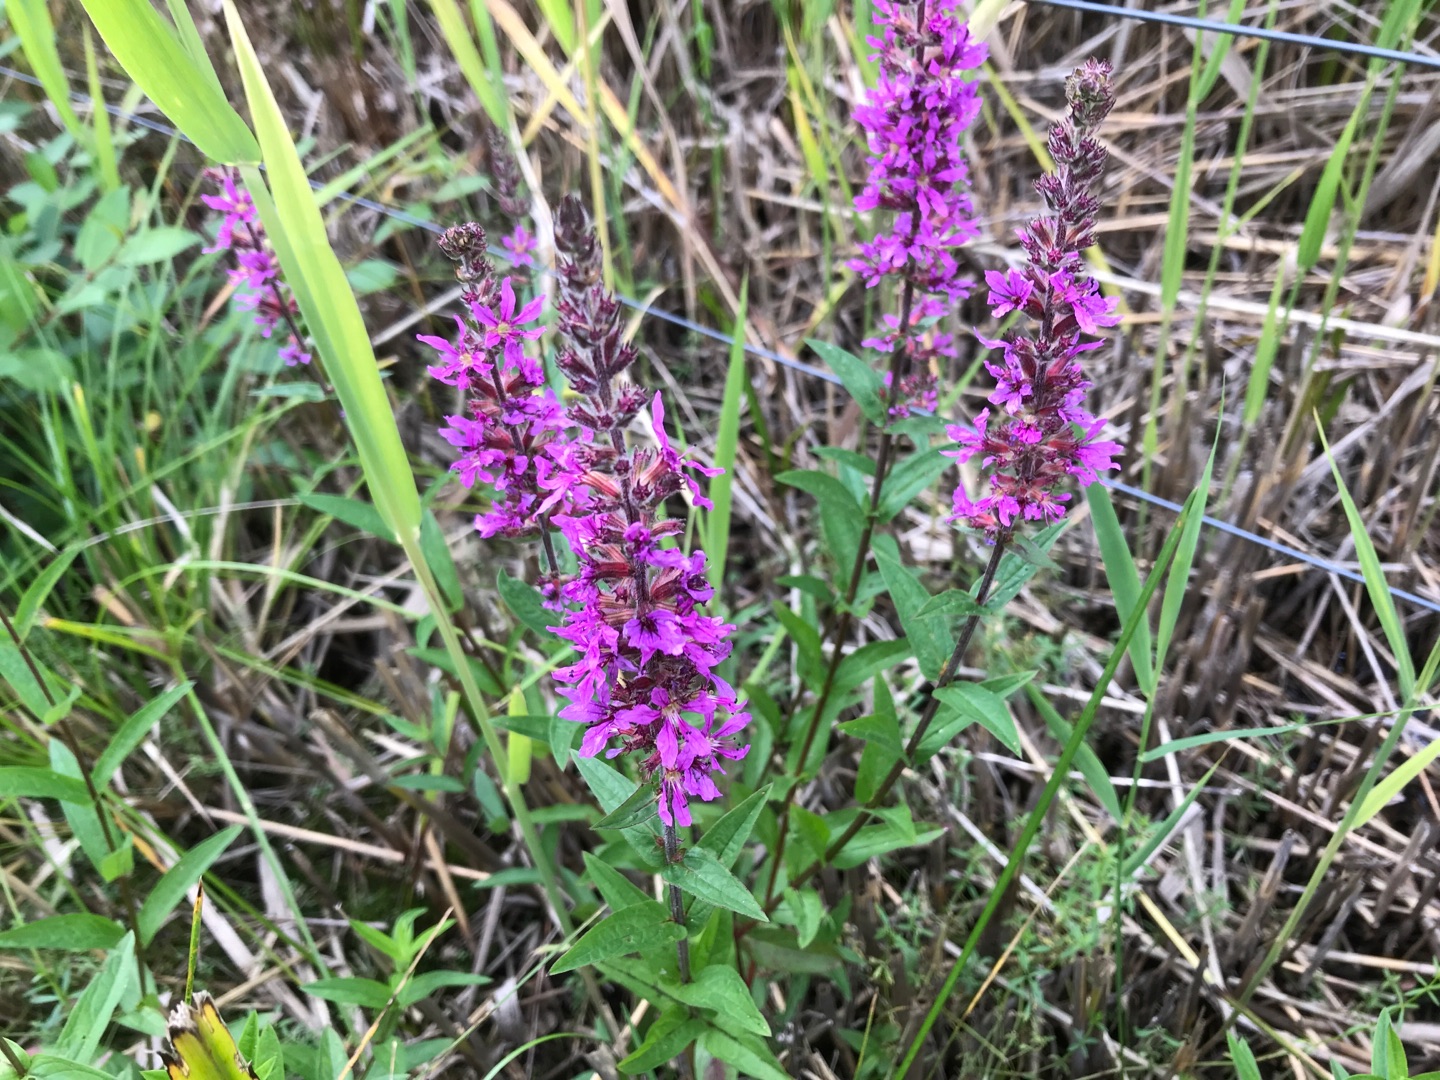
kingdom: Plantae
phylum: Tracheophyta
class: Magnoliopsida
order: Myrtales
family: Lythraceae
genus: Lythrum
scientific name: Lythrum salicaria
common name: Kattehale
